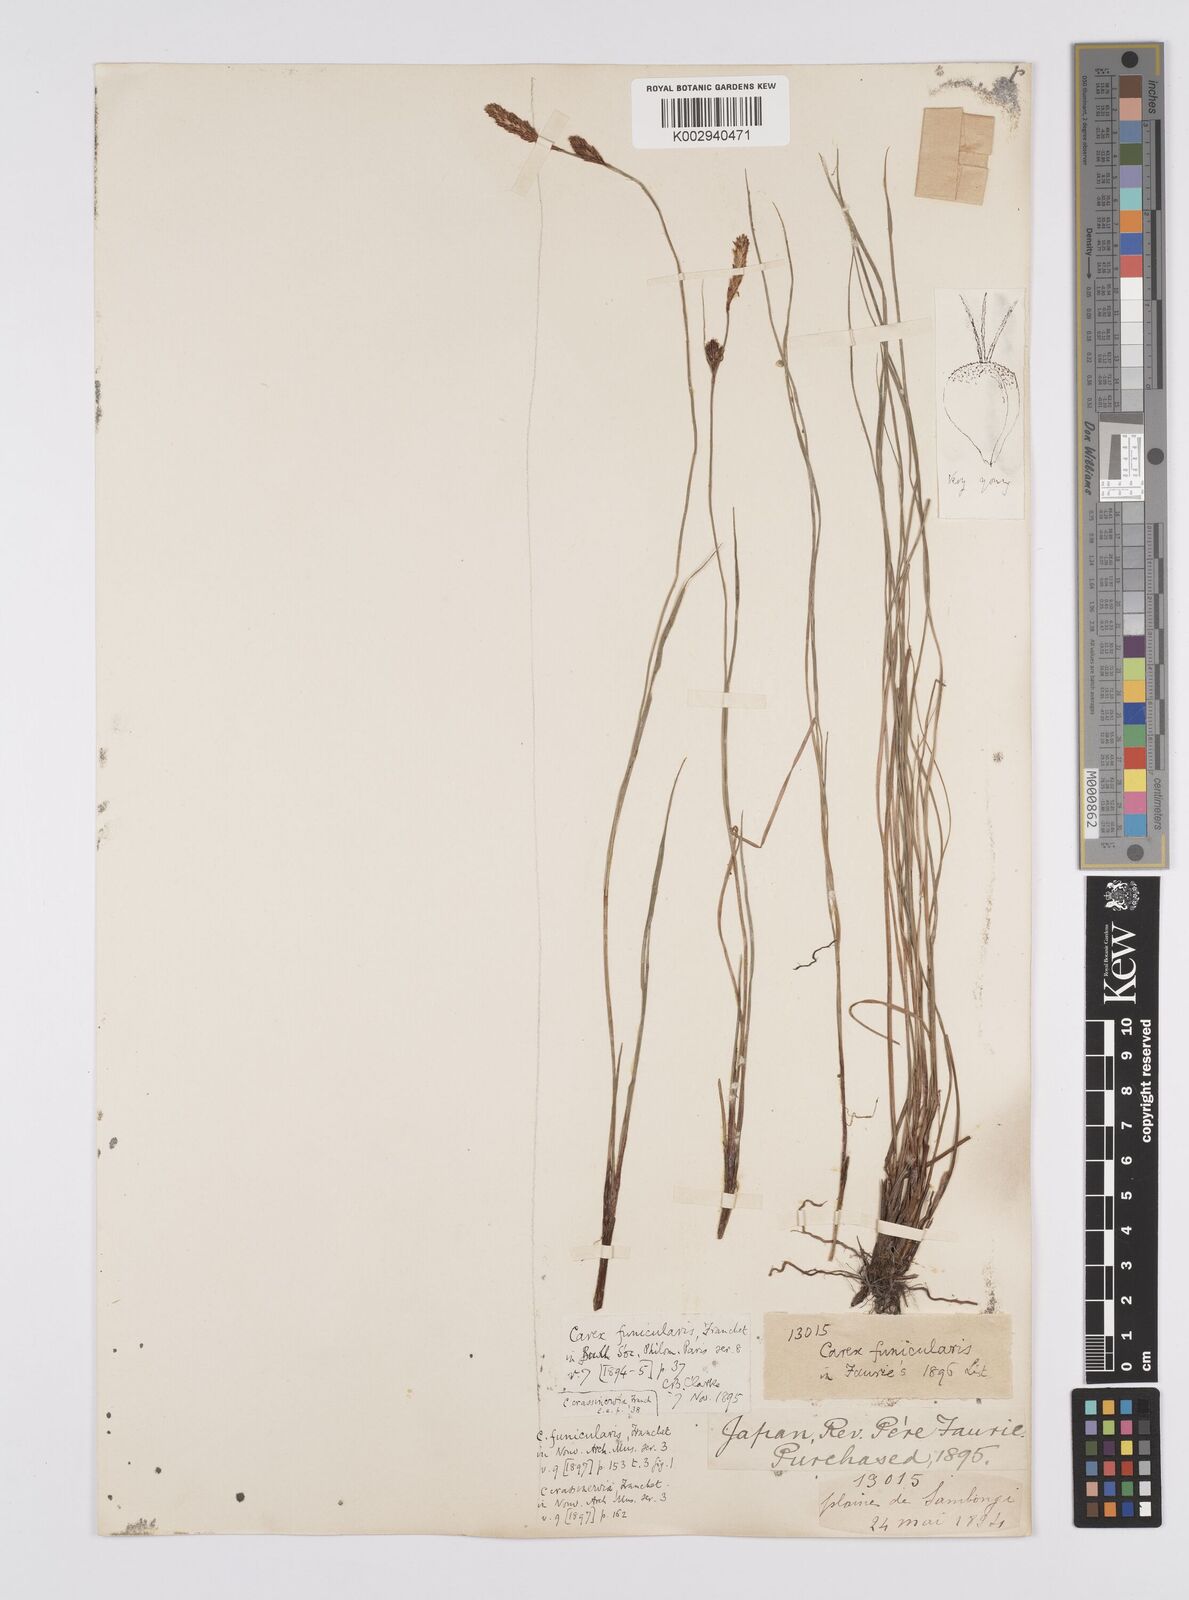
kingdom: Plantae
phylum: Tracheophyta
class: Liliopsida
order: Poales
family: Cyperaceae
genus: Carex
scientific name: Carex meyeriana
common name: Wula sedge
